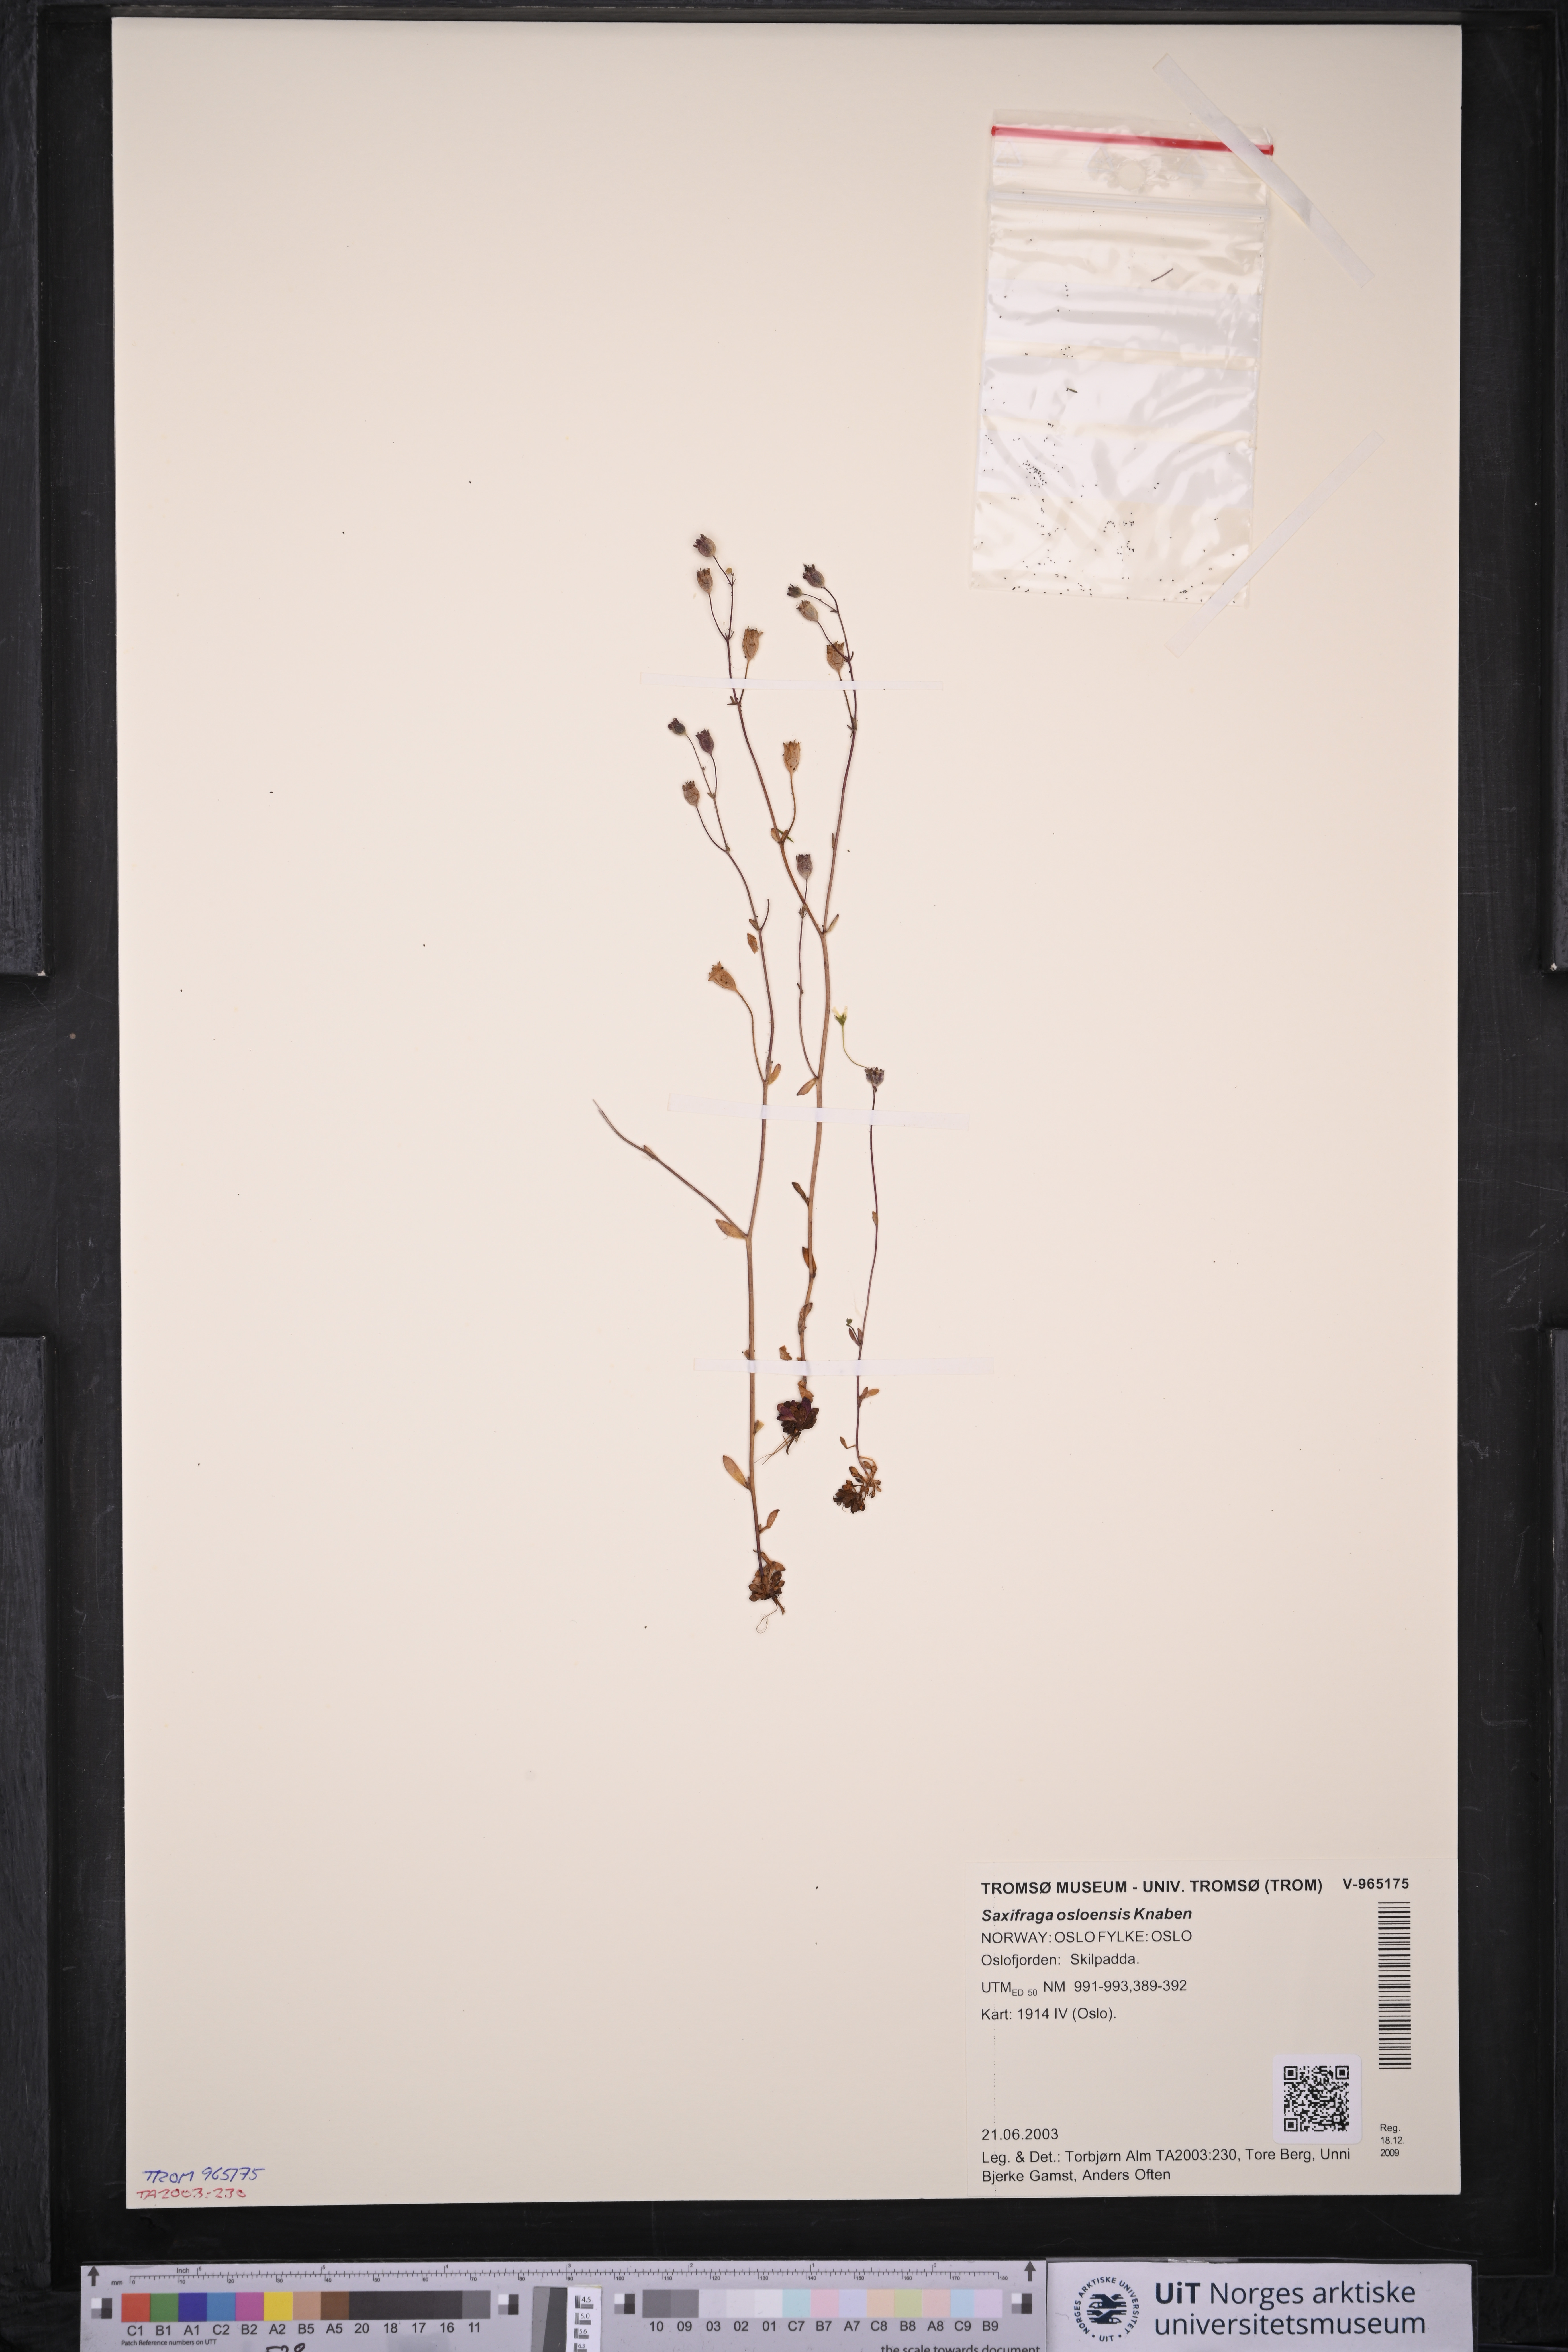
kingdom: Plantae
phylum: Tracheophyta
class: Magnoliopsida
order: Saxifragales
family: Saxifragaceae
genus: Saxifraga
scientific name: Saxifraga osloensis
